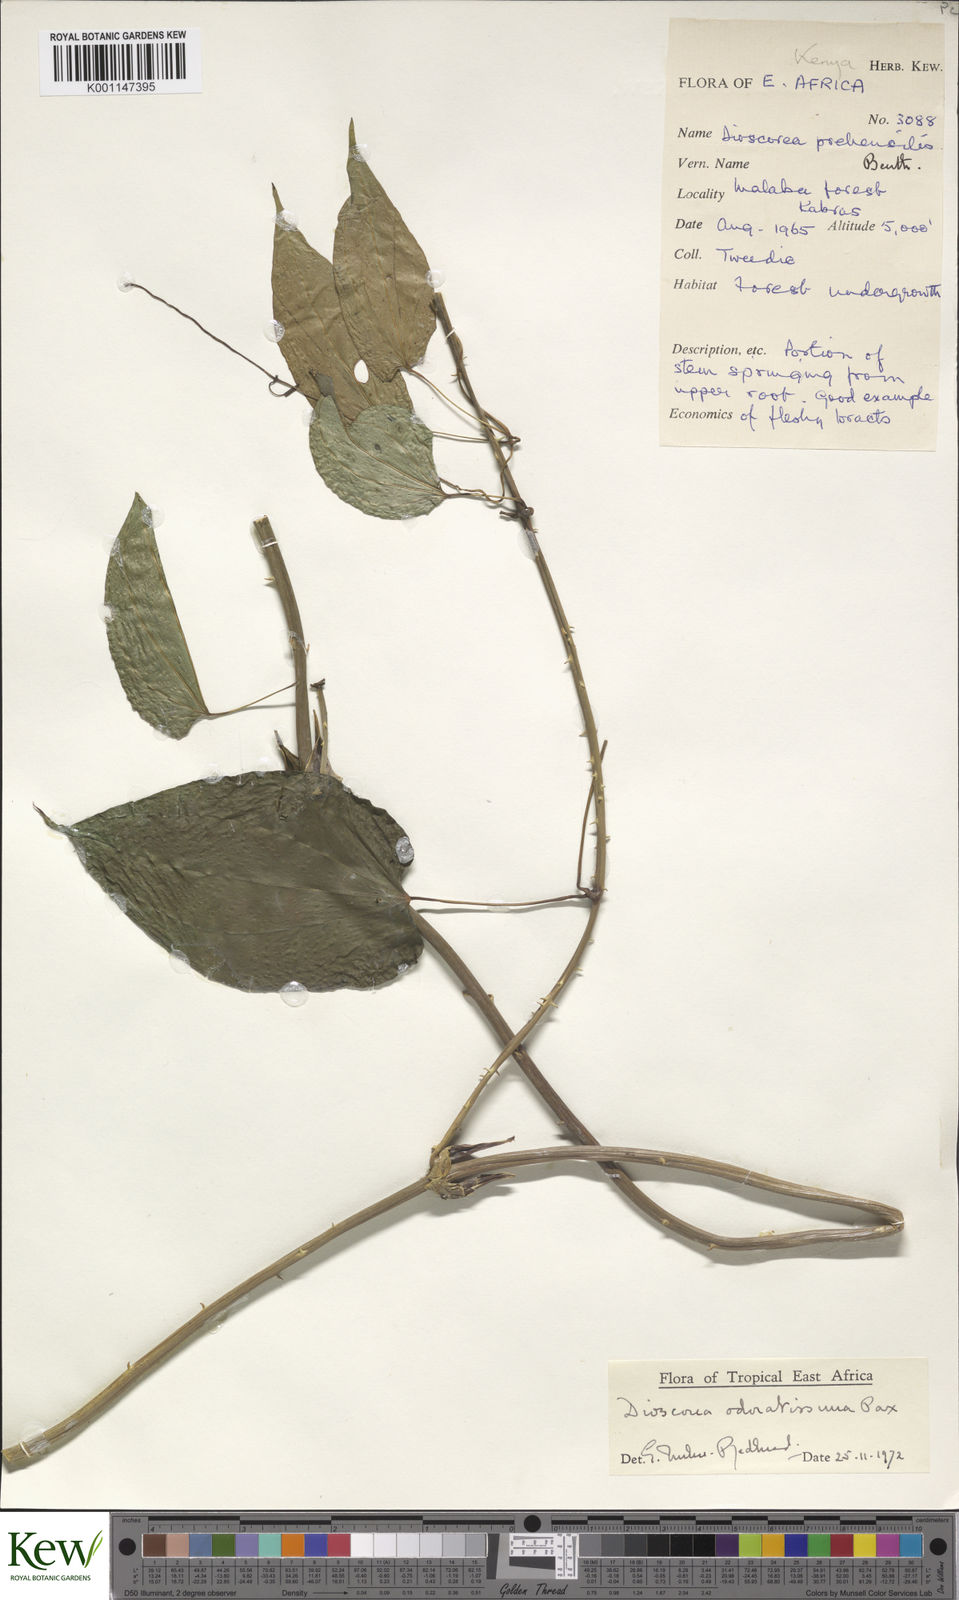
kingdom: Plantae
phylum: Tracheophyta
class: Liliopsida
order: Dioscoreales
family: Dioscoreaceae
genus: Dioscorea
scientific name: Dioscorea praehensilis
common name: Bush yam
